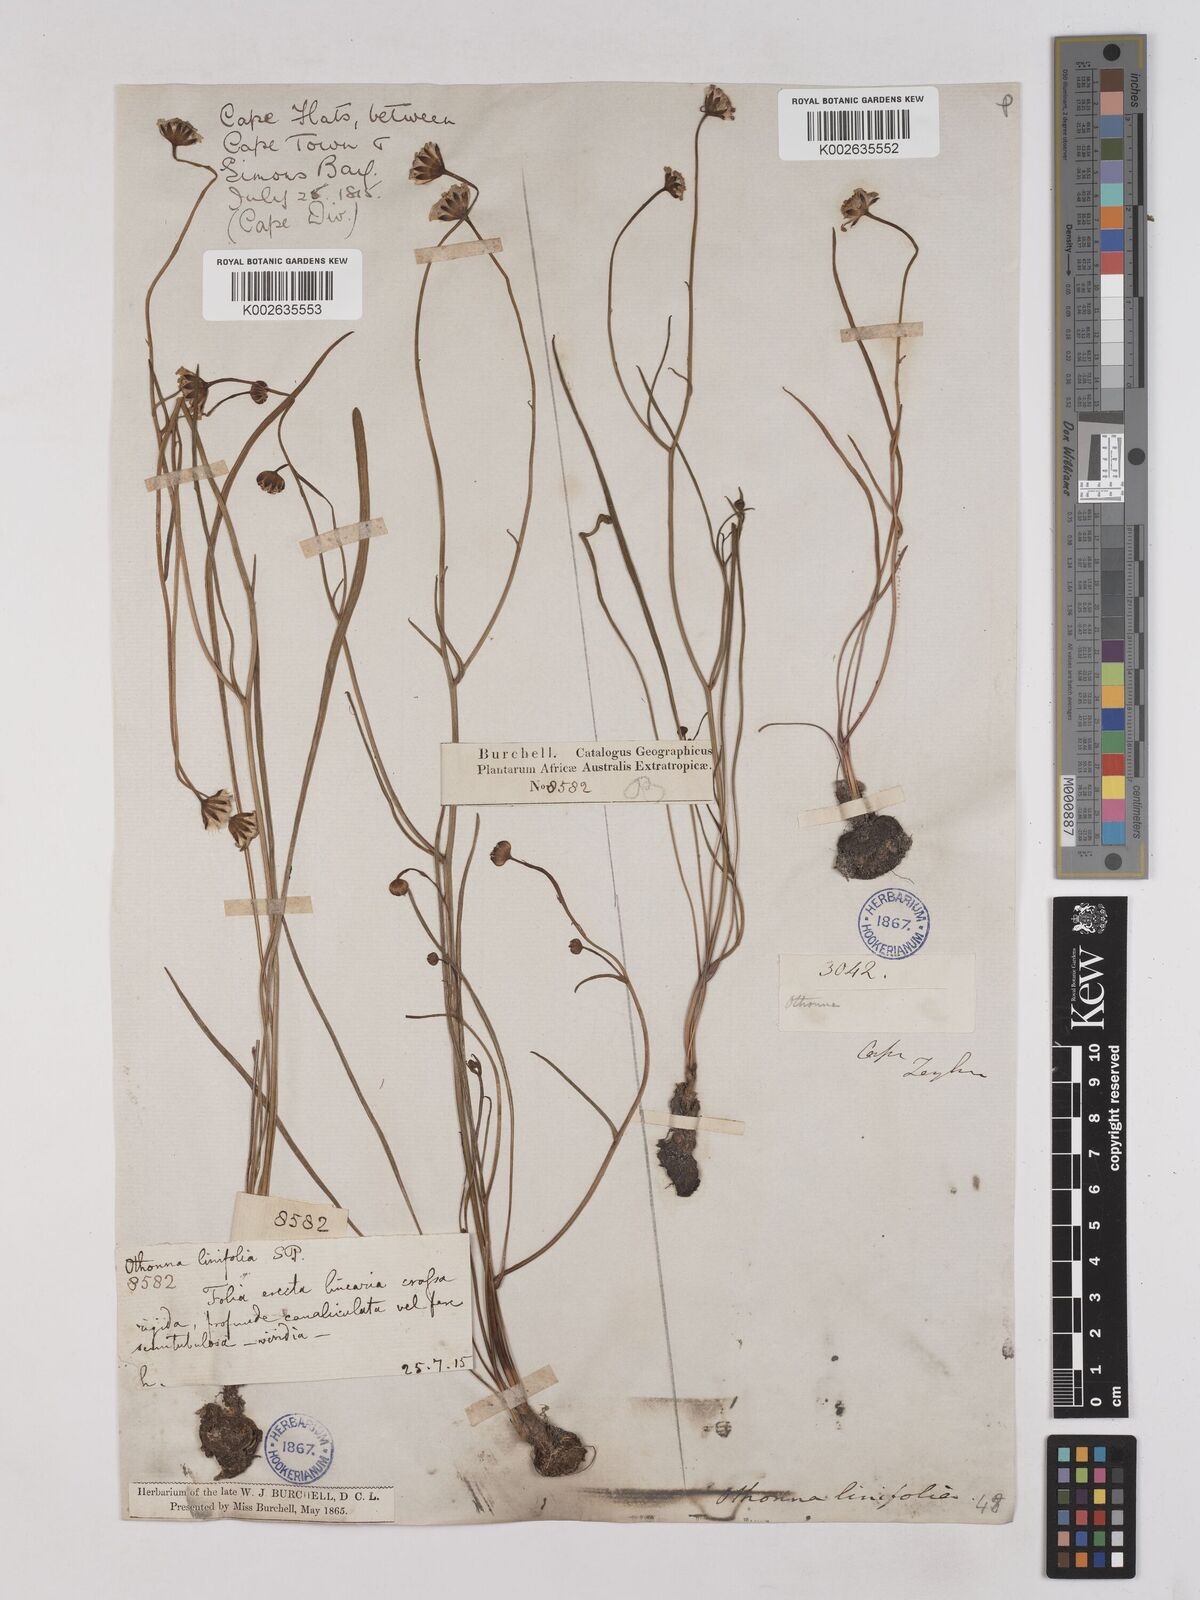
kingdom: Plantae
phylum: Tracheophyta
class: Magnoliopsida
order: Asterales
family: Asteraceae
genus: Othonna
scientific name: Othonna stenophylla
